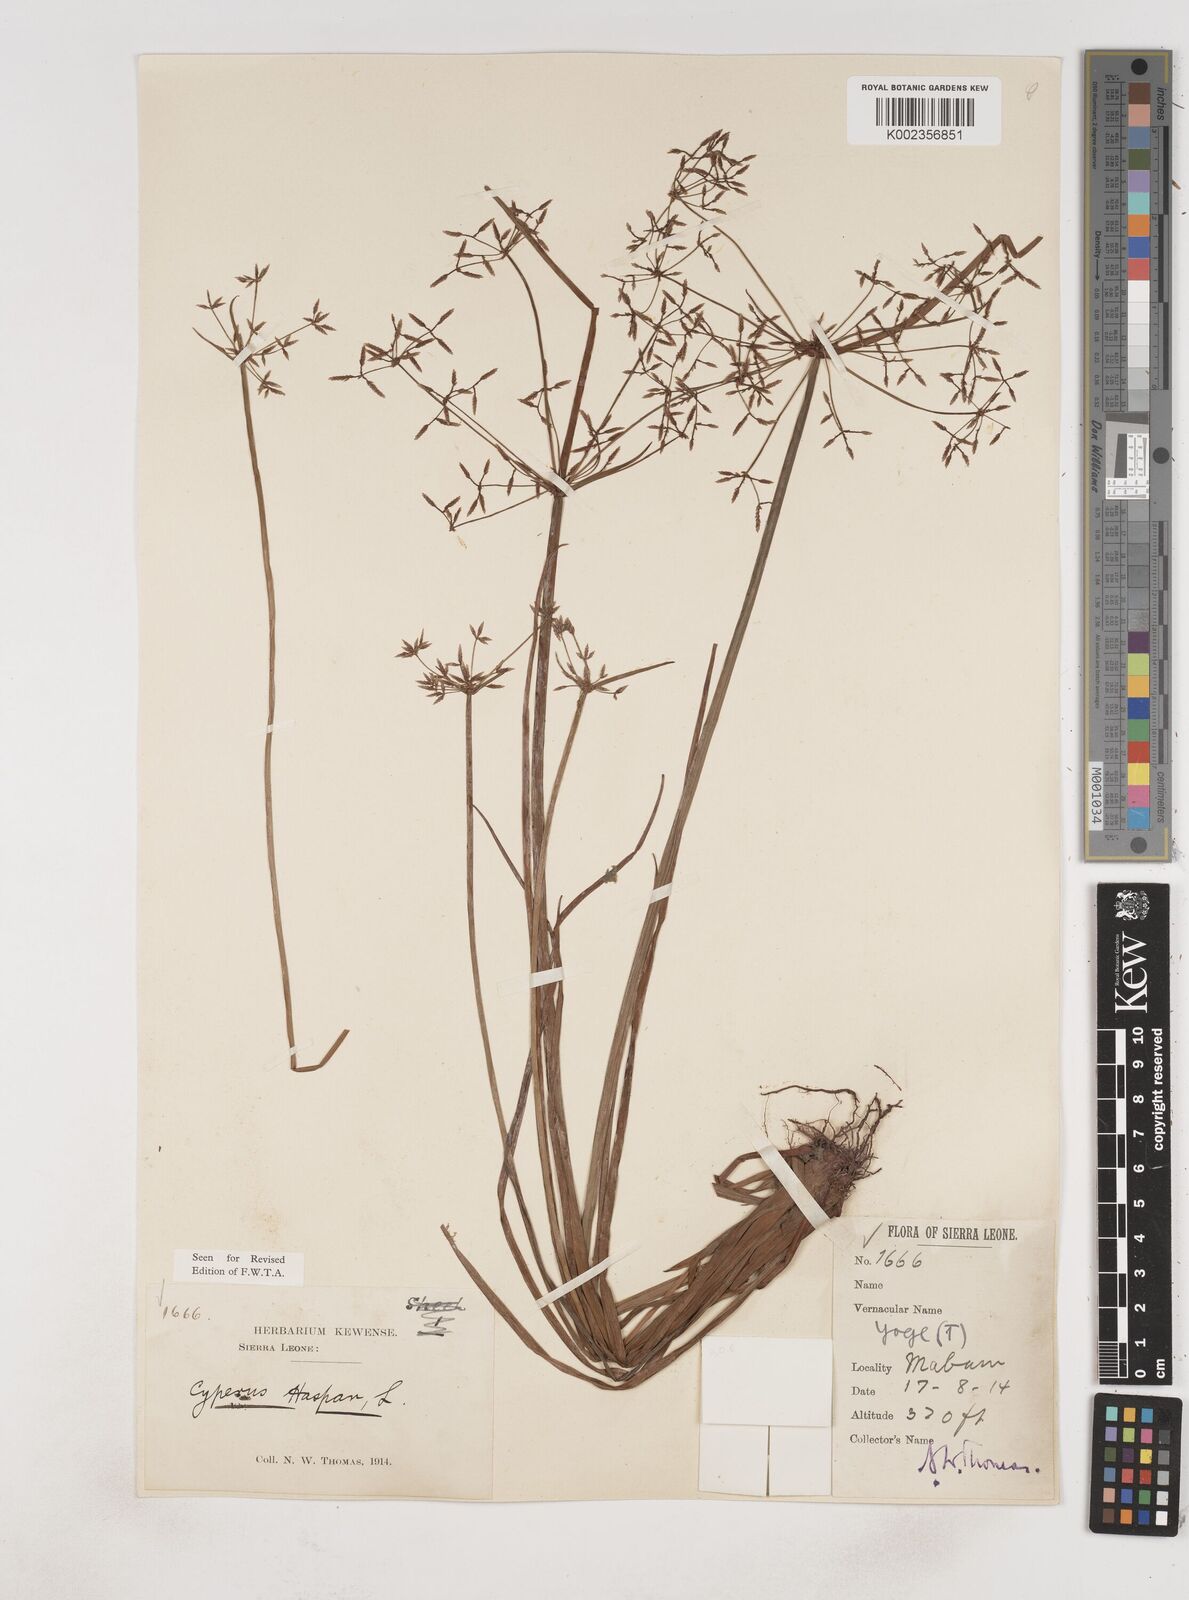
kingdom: Plantae
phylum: Tracheophyta
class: Liliopsida
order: Poales
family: Cyperaceae
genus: Cyperus
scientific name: Cyperus haspan
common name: Haspan flatsedge
